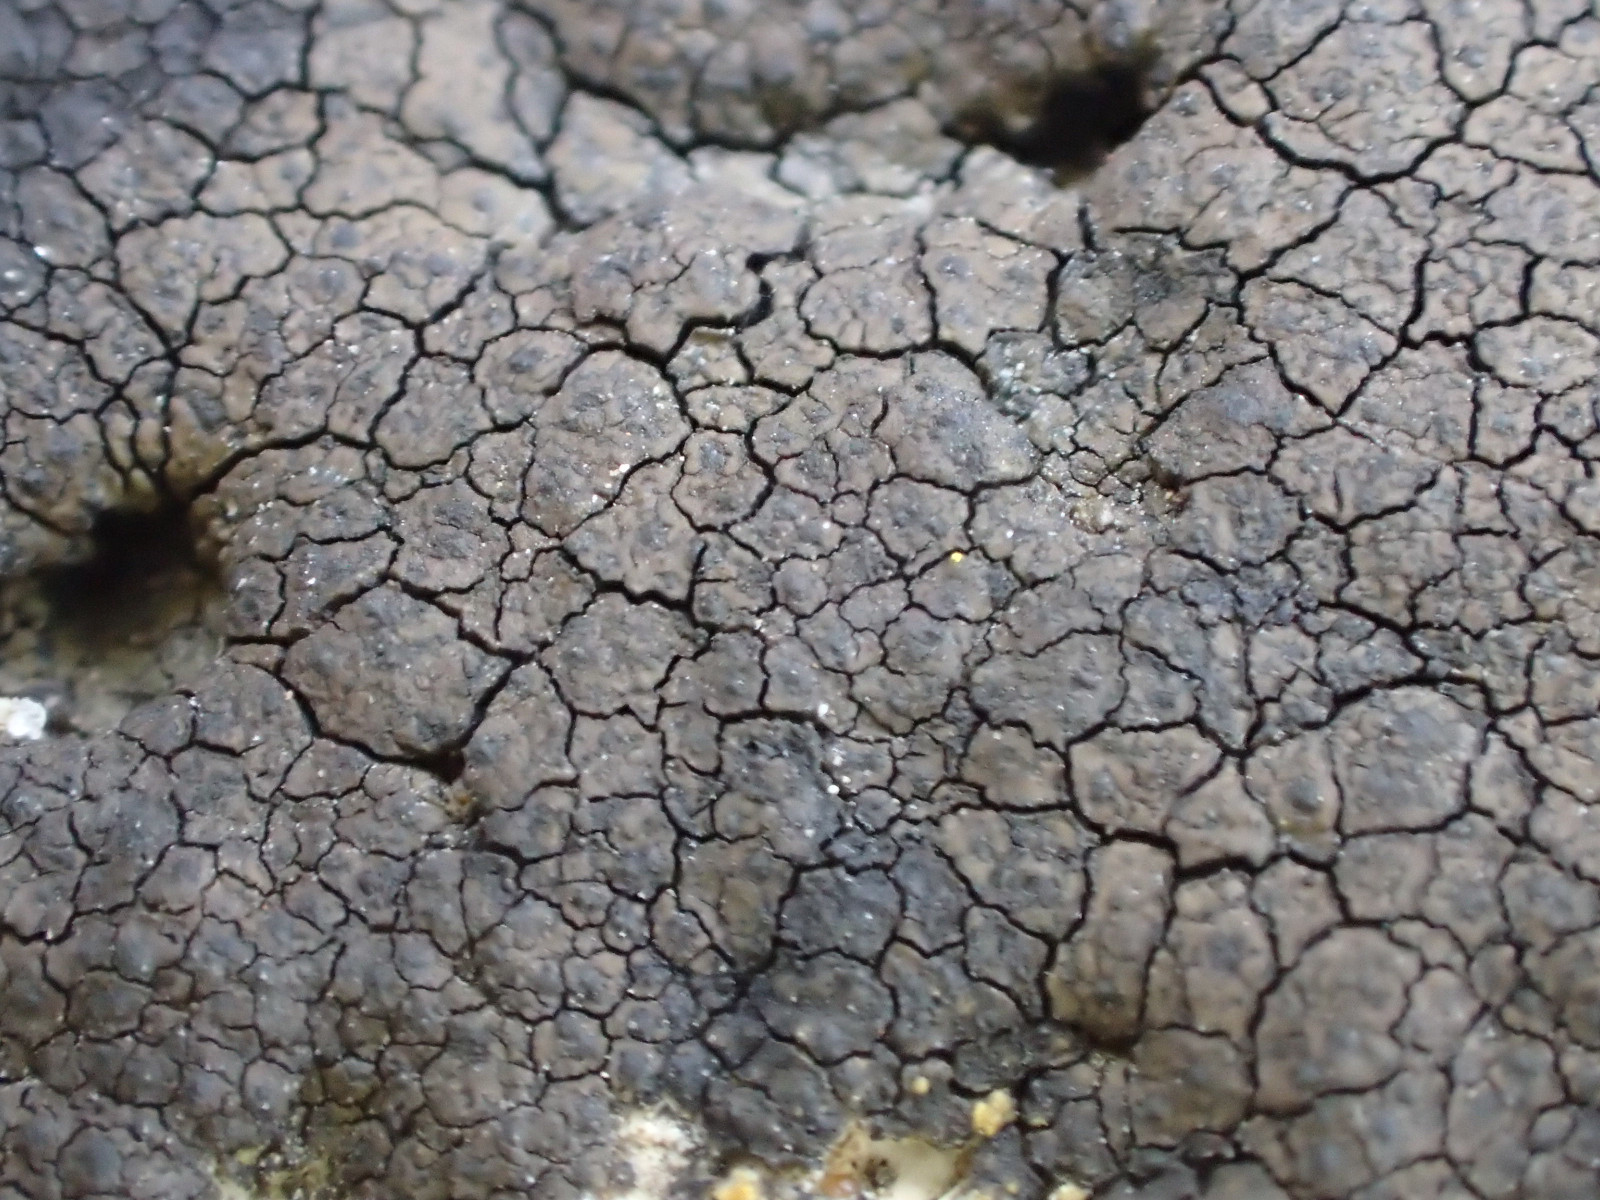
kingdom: Fungi
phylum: Ascomycota
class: Eurotiomycetes
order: Verrucariales
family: Verrucariaceae
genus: Verrucaria
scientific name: Verrucaria nigrescens
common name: sortbrun vortelav
